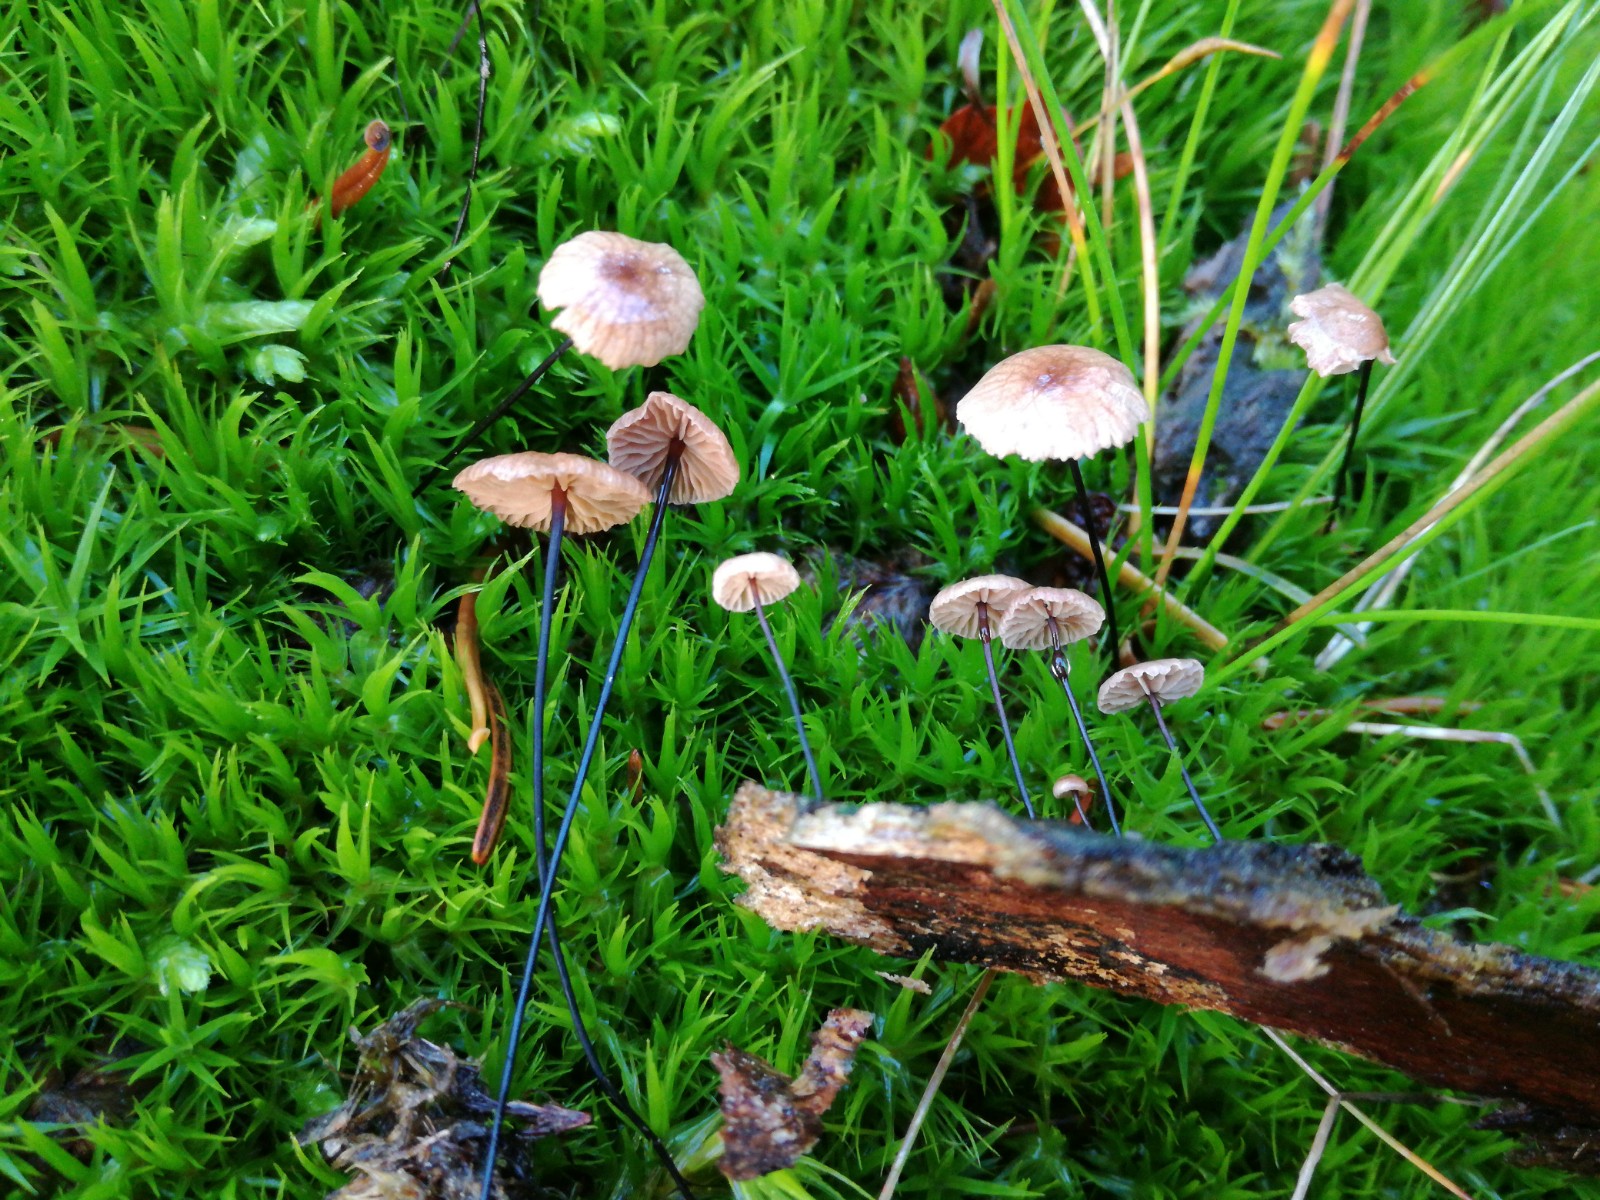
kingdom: Fungi
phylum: Basidiomycota
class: Agaricomycetes
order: Agaricales
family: Omphalotaceae
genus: Gymnopus
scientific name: Gymnopus androsaceus
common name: trådstokket fladhat
